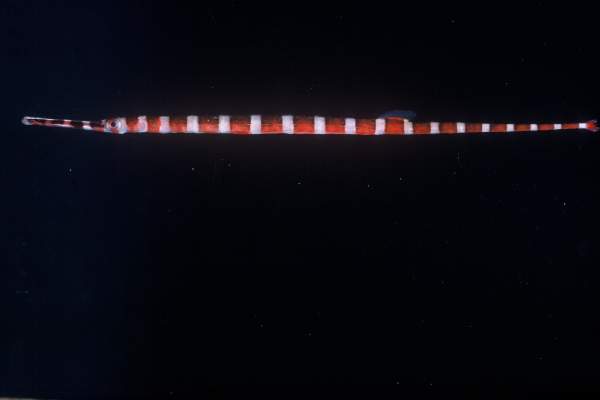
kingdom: Animalia
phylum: Chordata
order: Syngnathiformes
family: Syngnathidae
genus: Dunckerocampus
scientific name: Dunckerocampus dactyliophorus
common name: Banded pipefish
